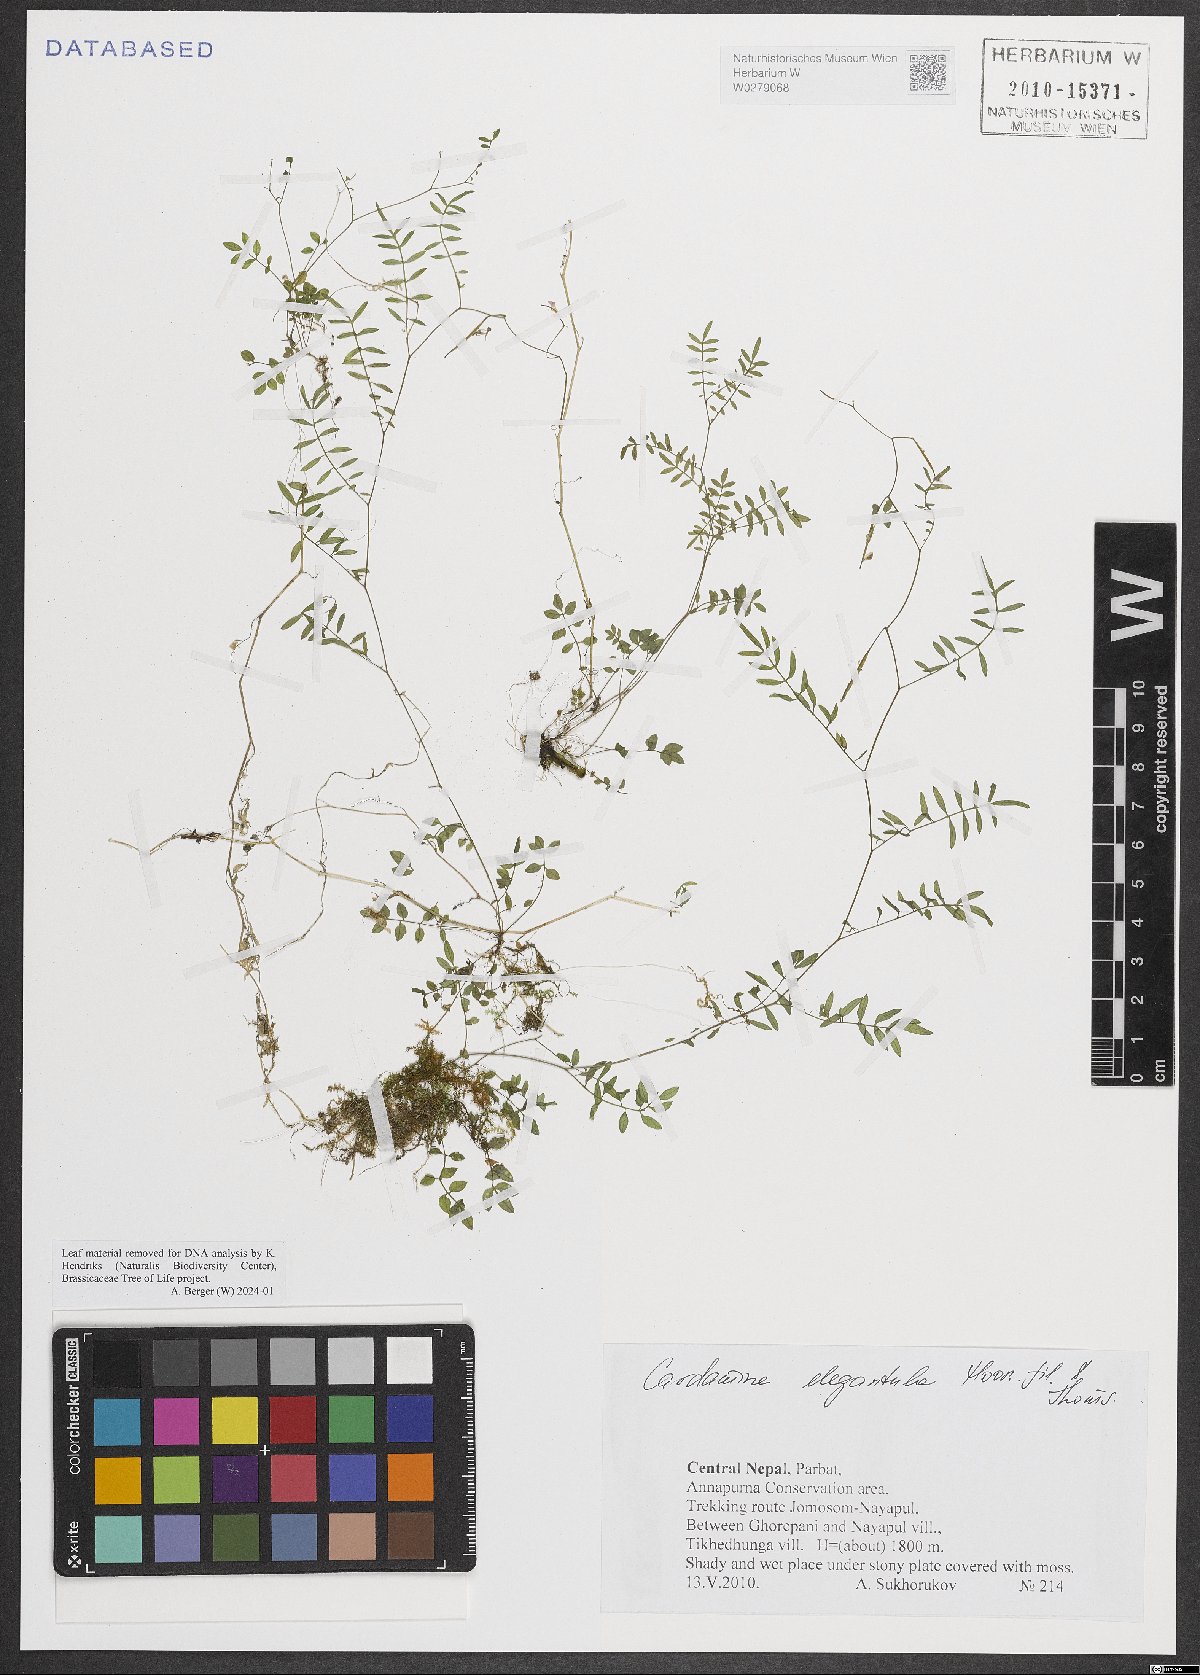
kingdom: Plantae
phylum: Tracheophyta
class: Magnoliopsida
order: Brassicales
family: Brassicaceae
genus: Cardamine
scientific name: Cardamine elegantula
